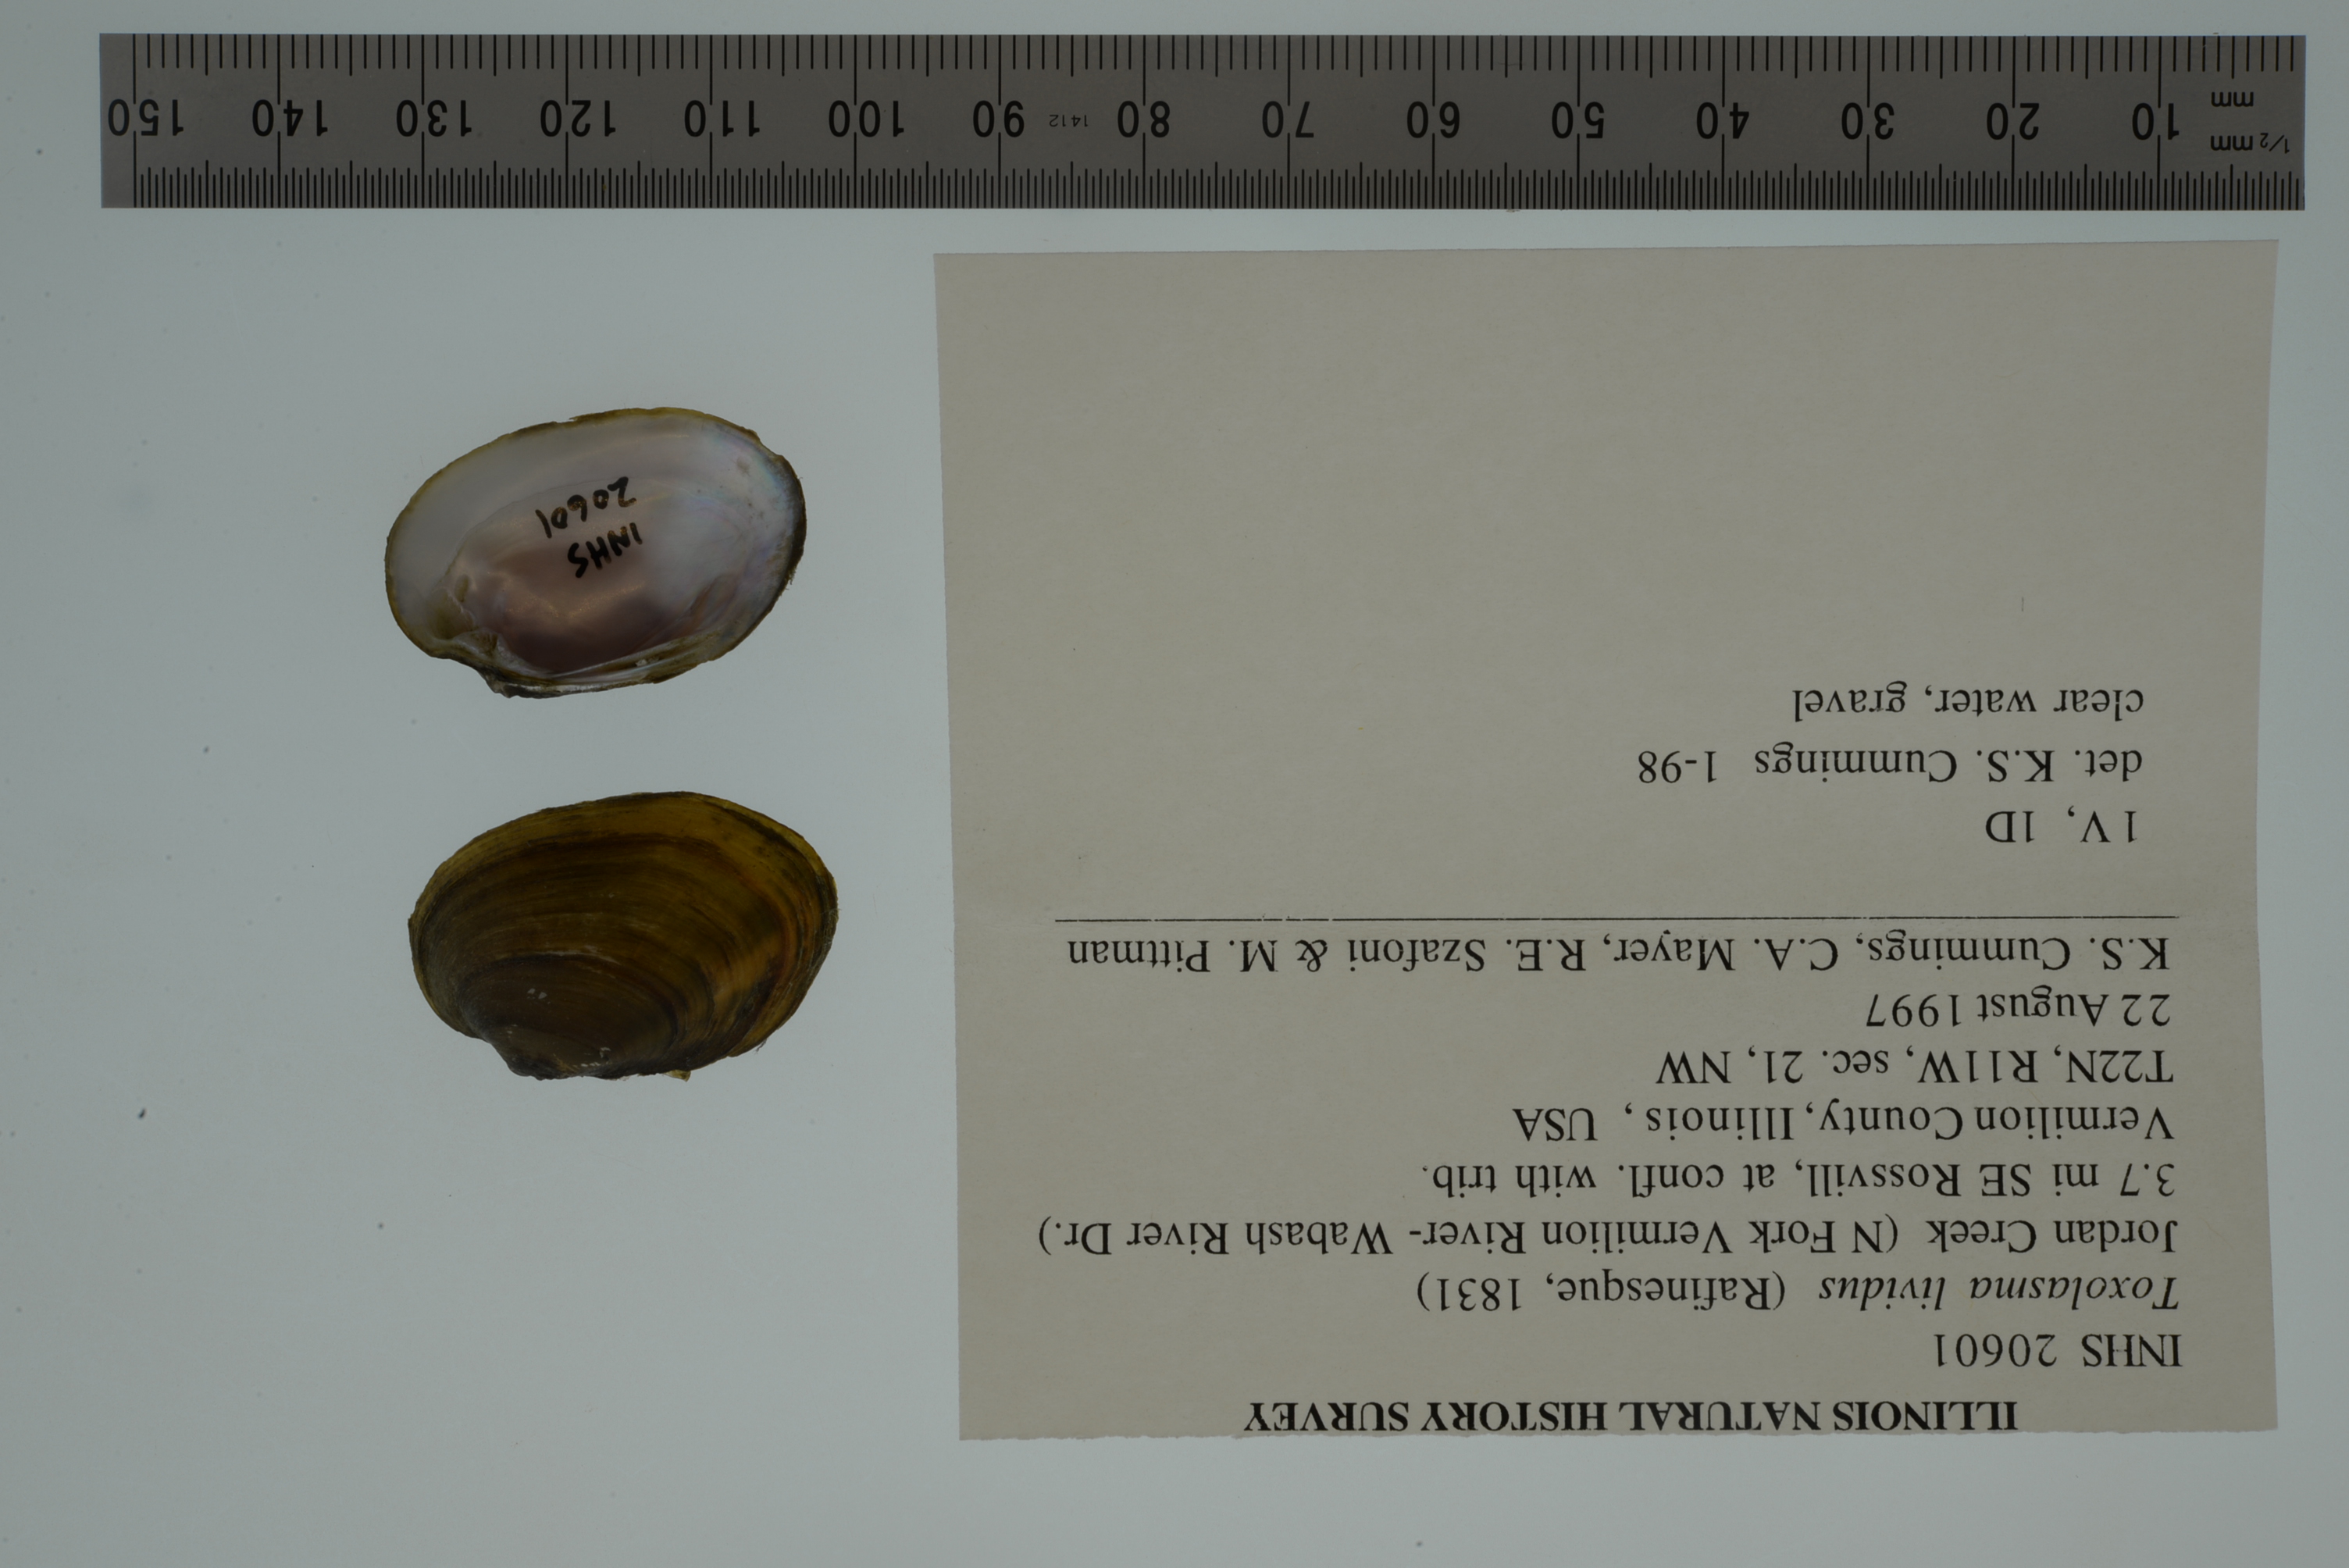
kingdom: Animalia
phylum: Mollusca
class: Bivalvia
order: Unionida
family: Unionidae
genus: Toxolasma
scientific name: Toxolasma lividum
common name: Purple lilliput
